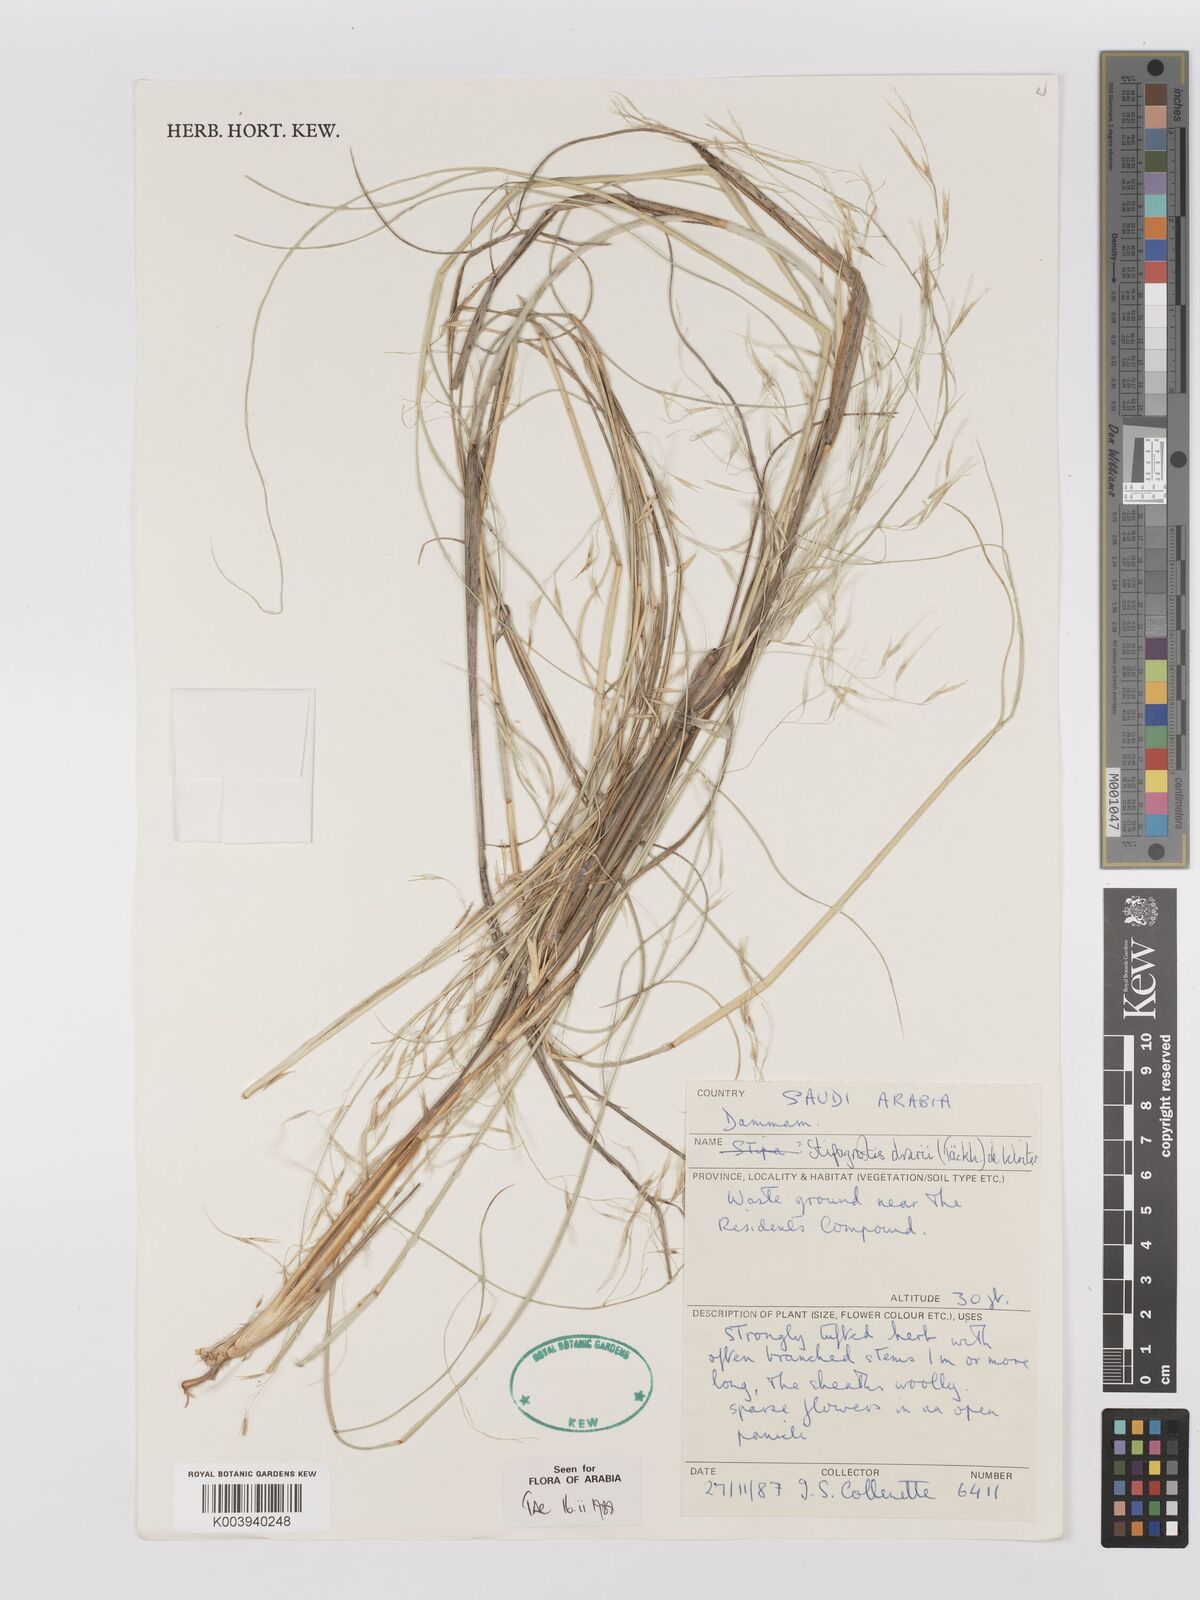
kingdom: Plantae
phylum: Tracheophyta
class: Liliopsida
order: Poales
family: Poaceae
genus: Stipagrostis
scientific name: Stipagrostis drarii
